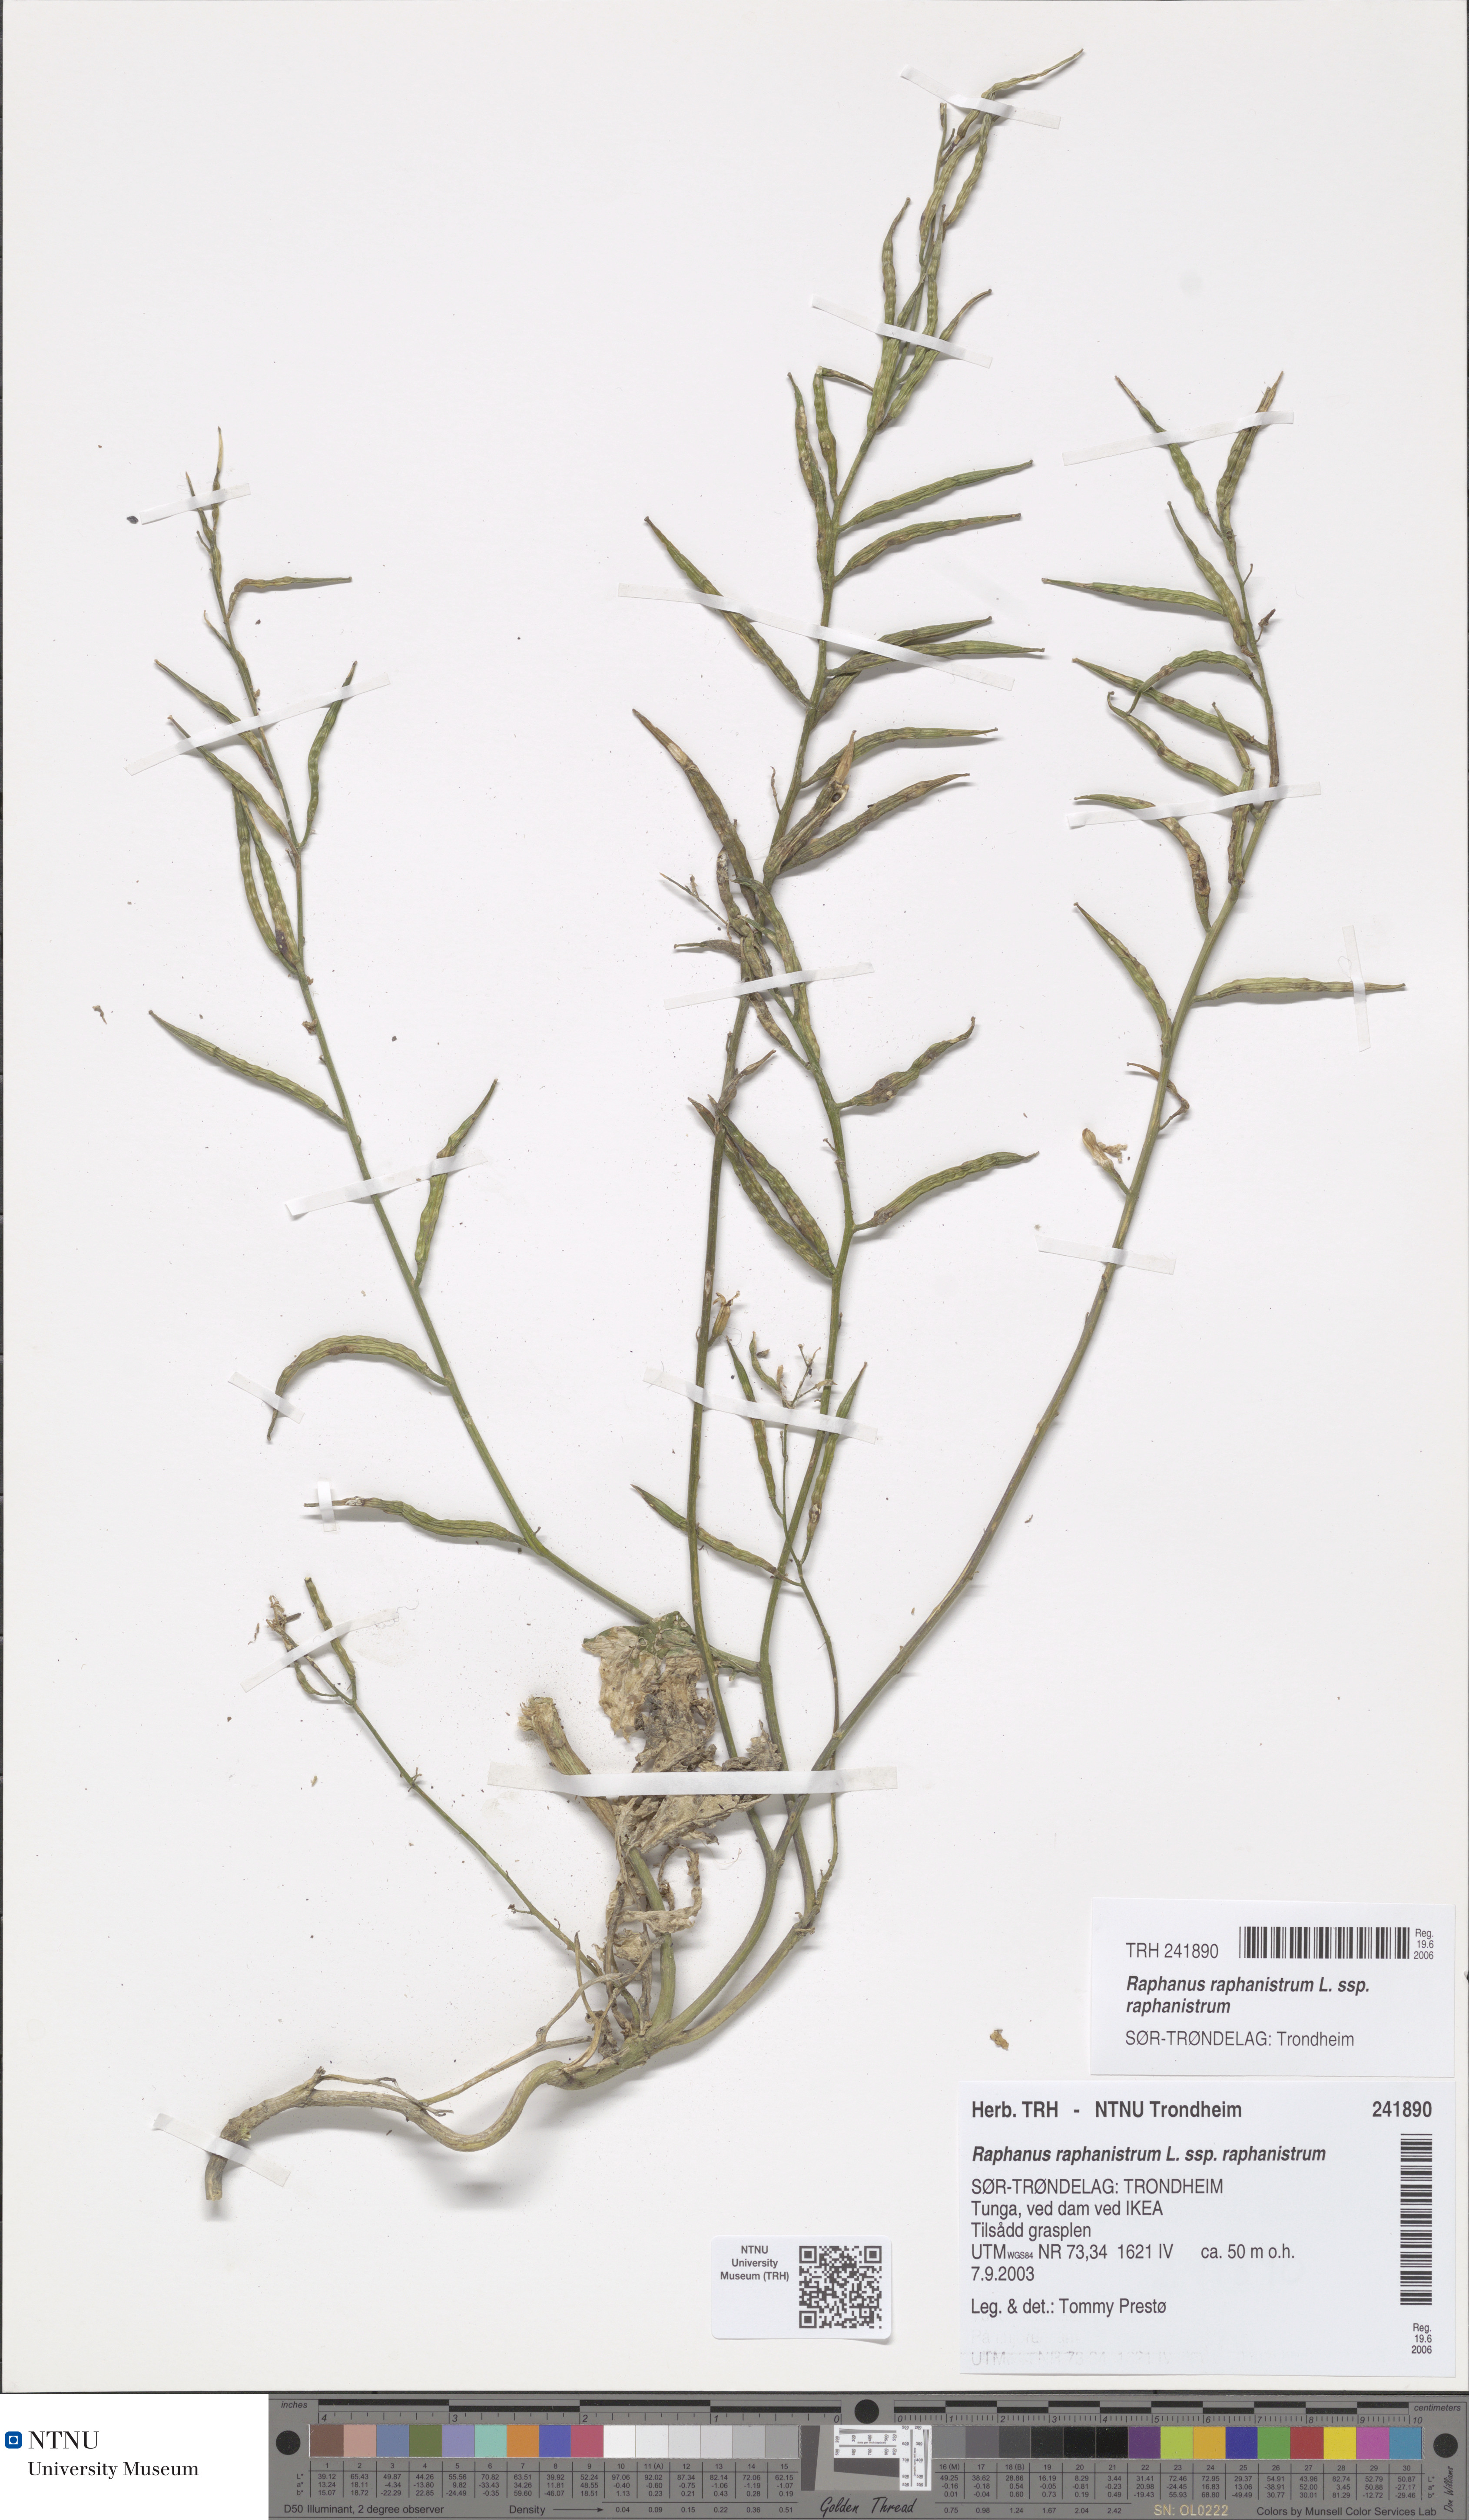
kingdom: Plantae
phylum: Tracheophyta
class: Magnoliopsida
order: Brassicales
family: Brassicaceae
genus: Raphanus
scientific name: Raphanus raphanistrum
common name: Wild radish
